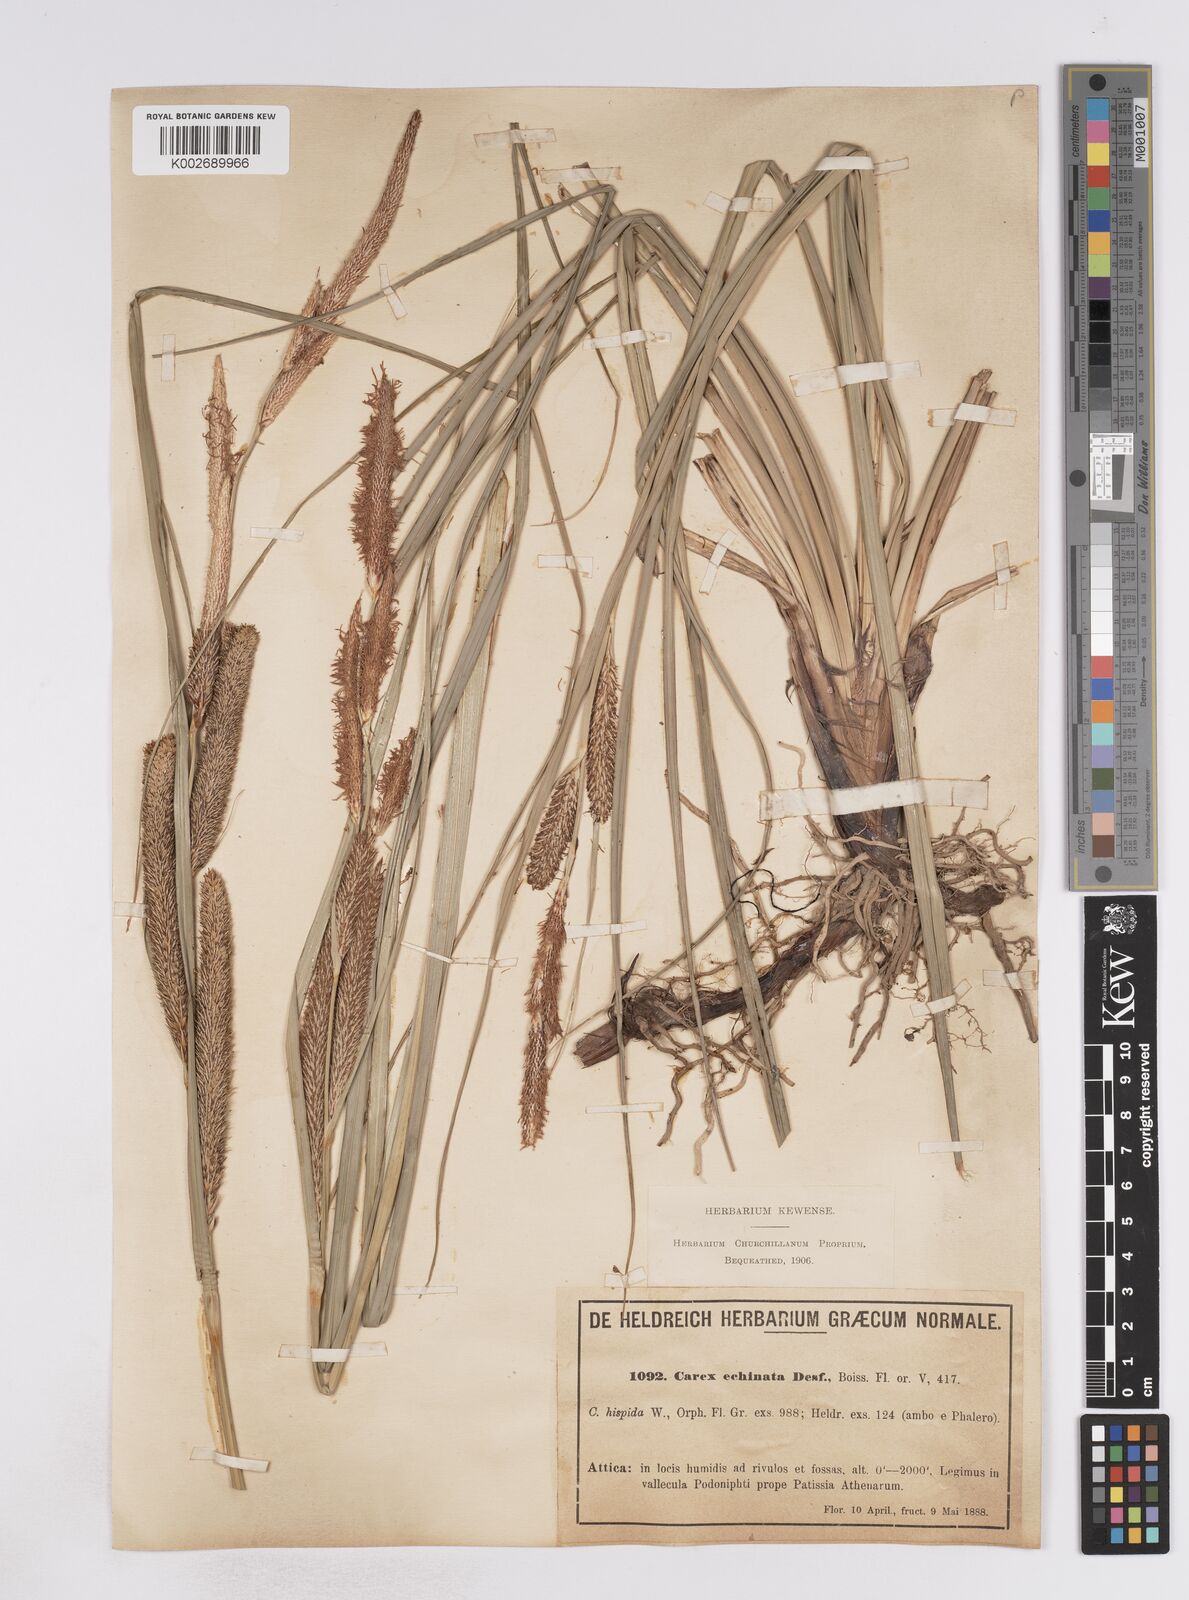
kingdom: Plantae
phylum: Tracheophyta
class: Liliopsida
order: Poales
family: Cyperaceae
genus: Carex
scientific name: Carex hispida
